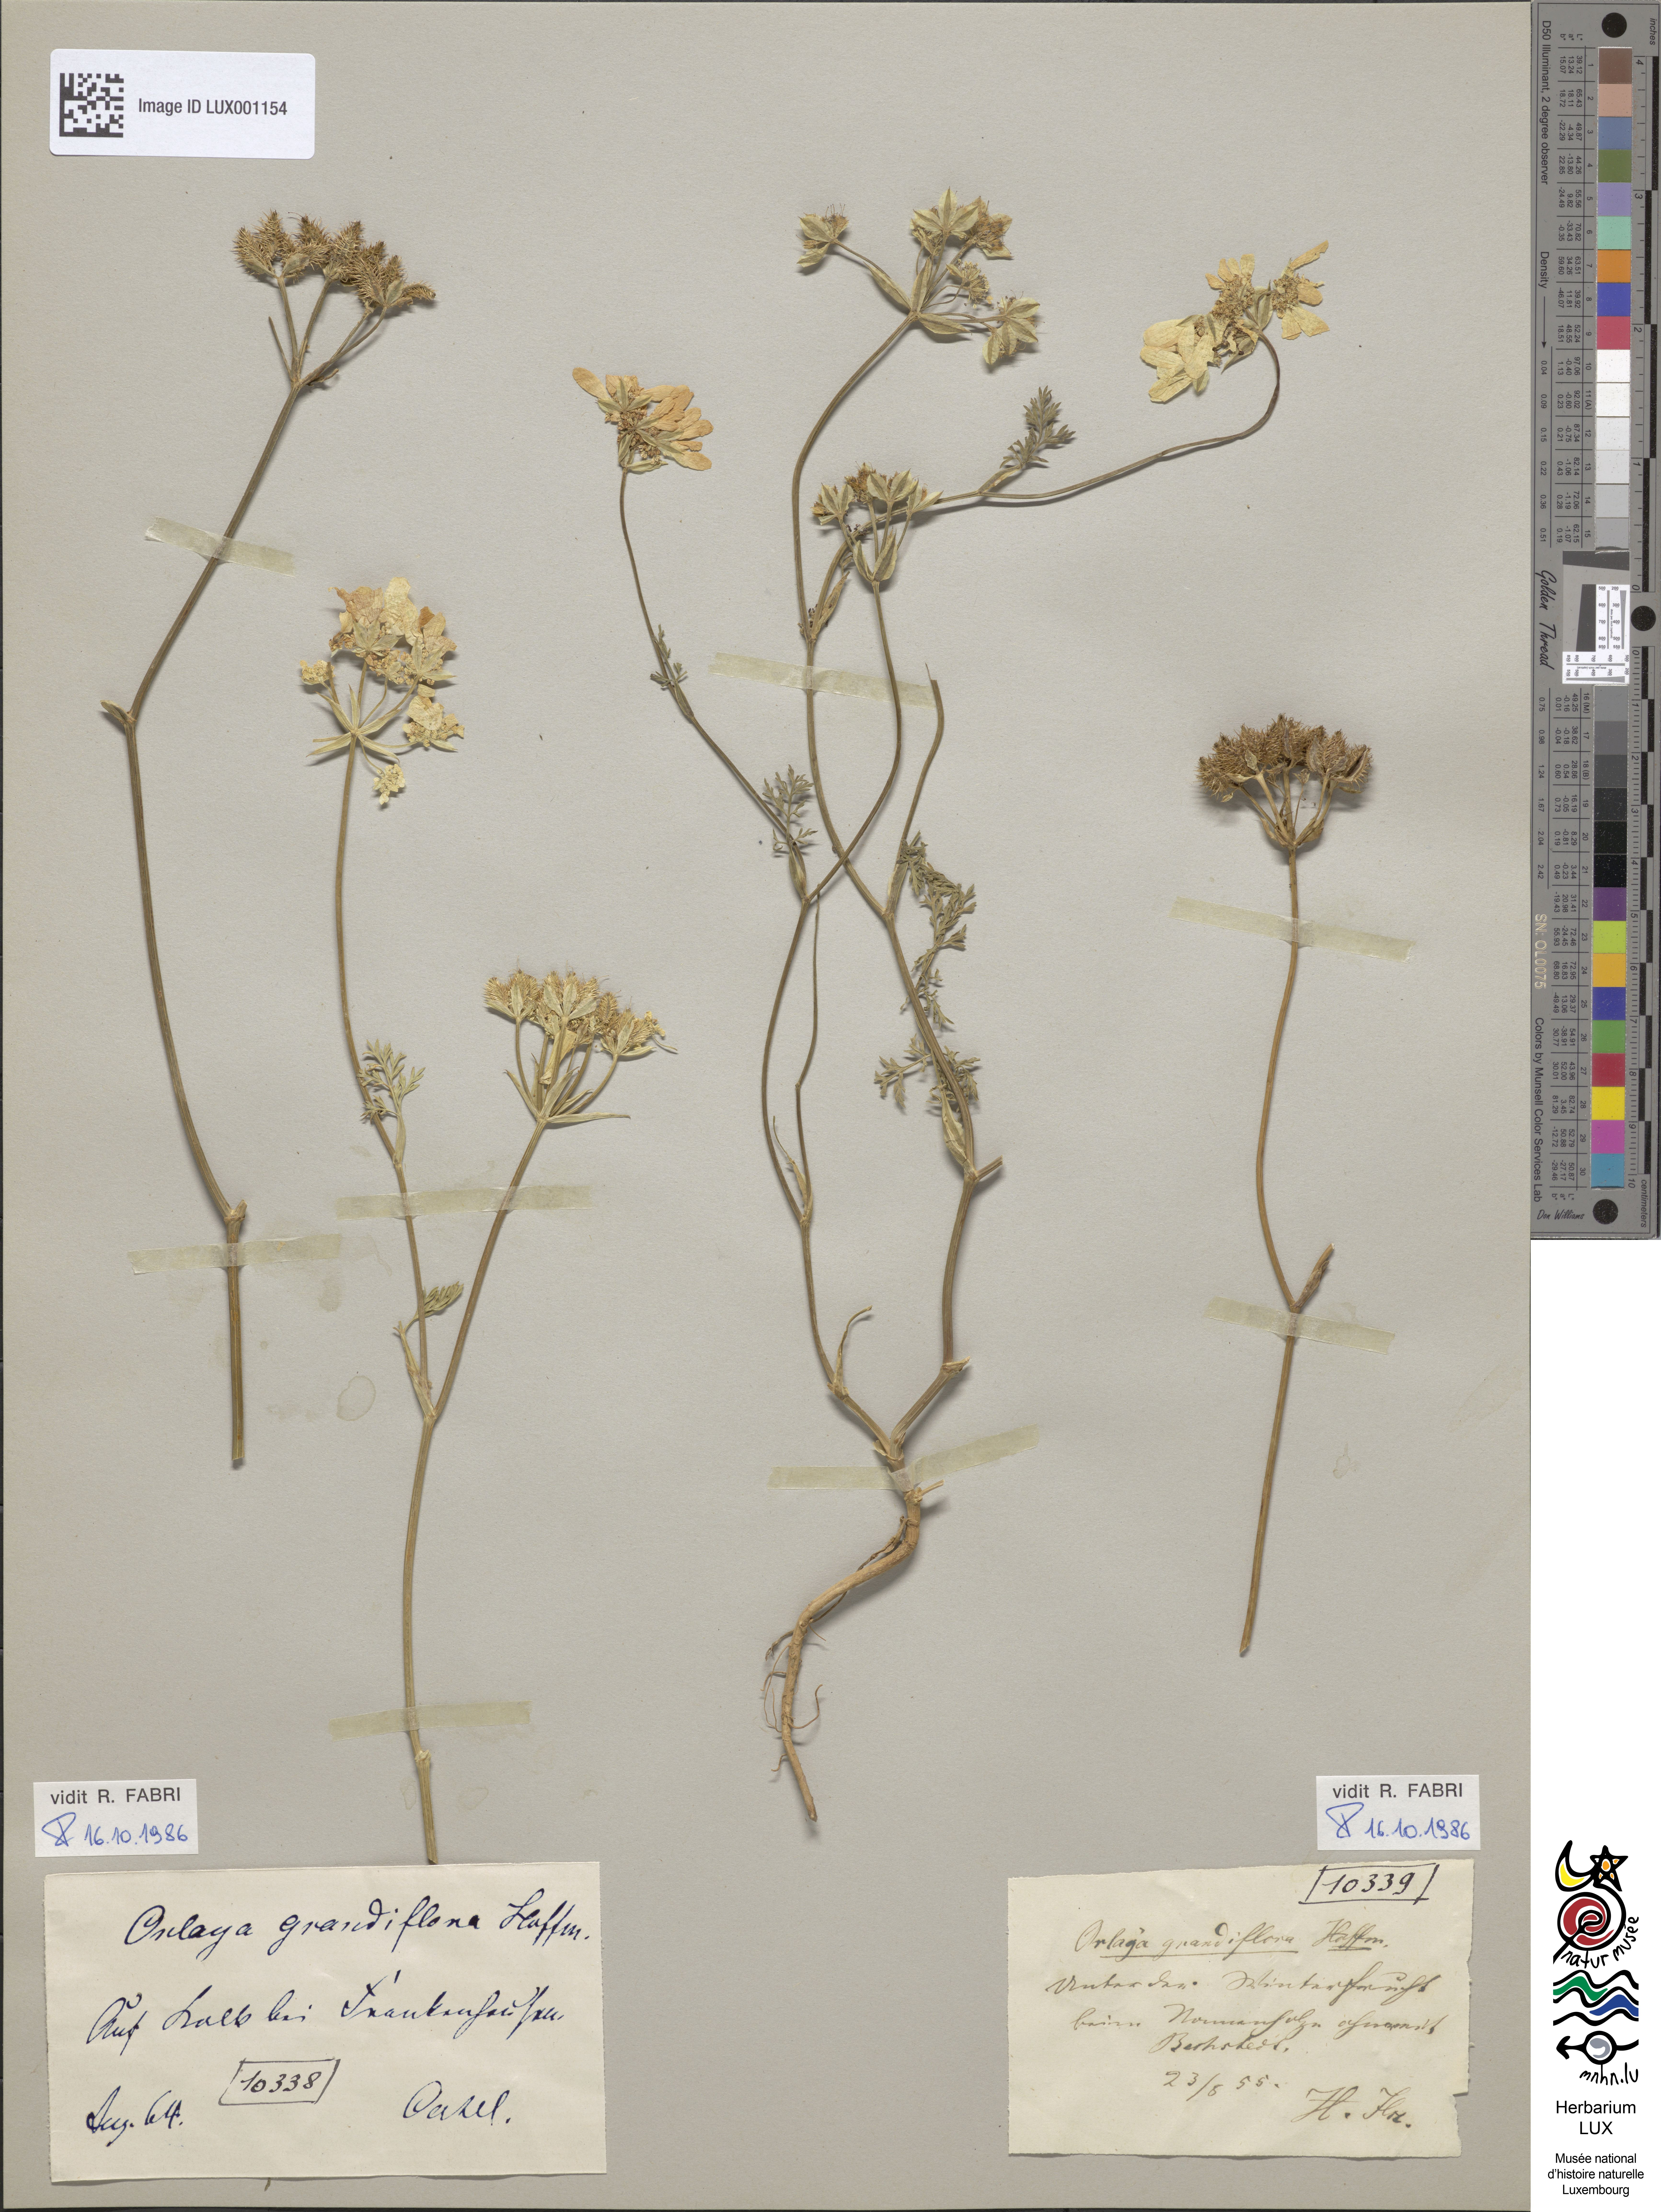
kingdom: Plantae
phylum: Tracheophyta
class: Magnoliopsida
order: Apiales
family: Apiaceae
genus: Orlaya
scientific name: Orlaya grandiflora
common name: White lace flower
